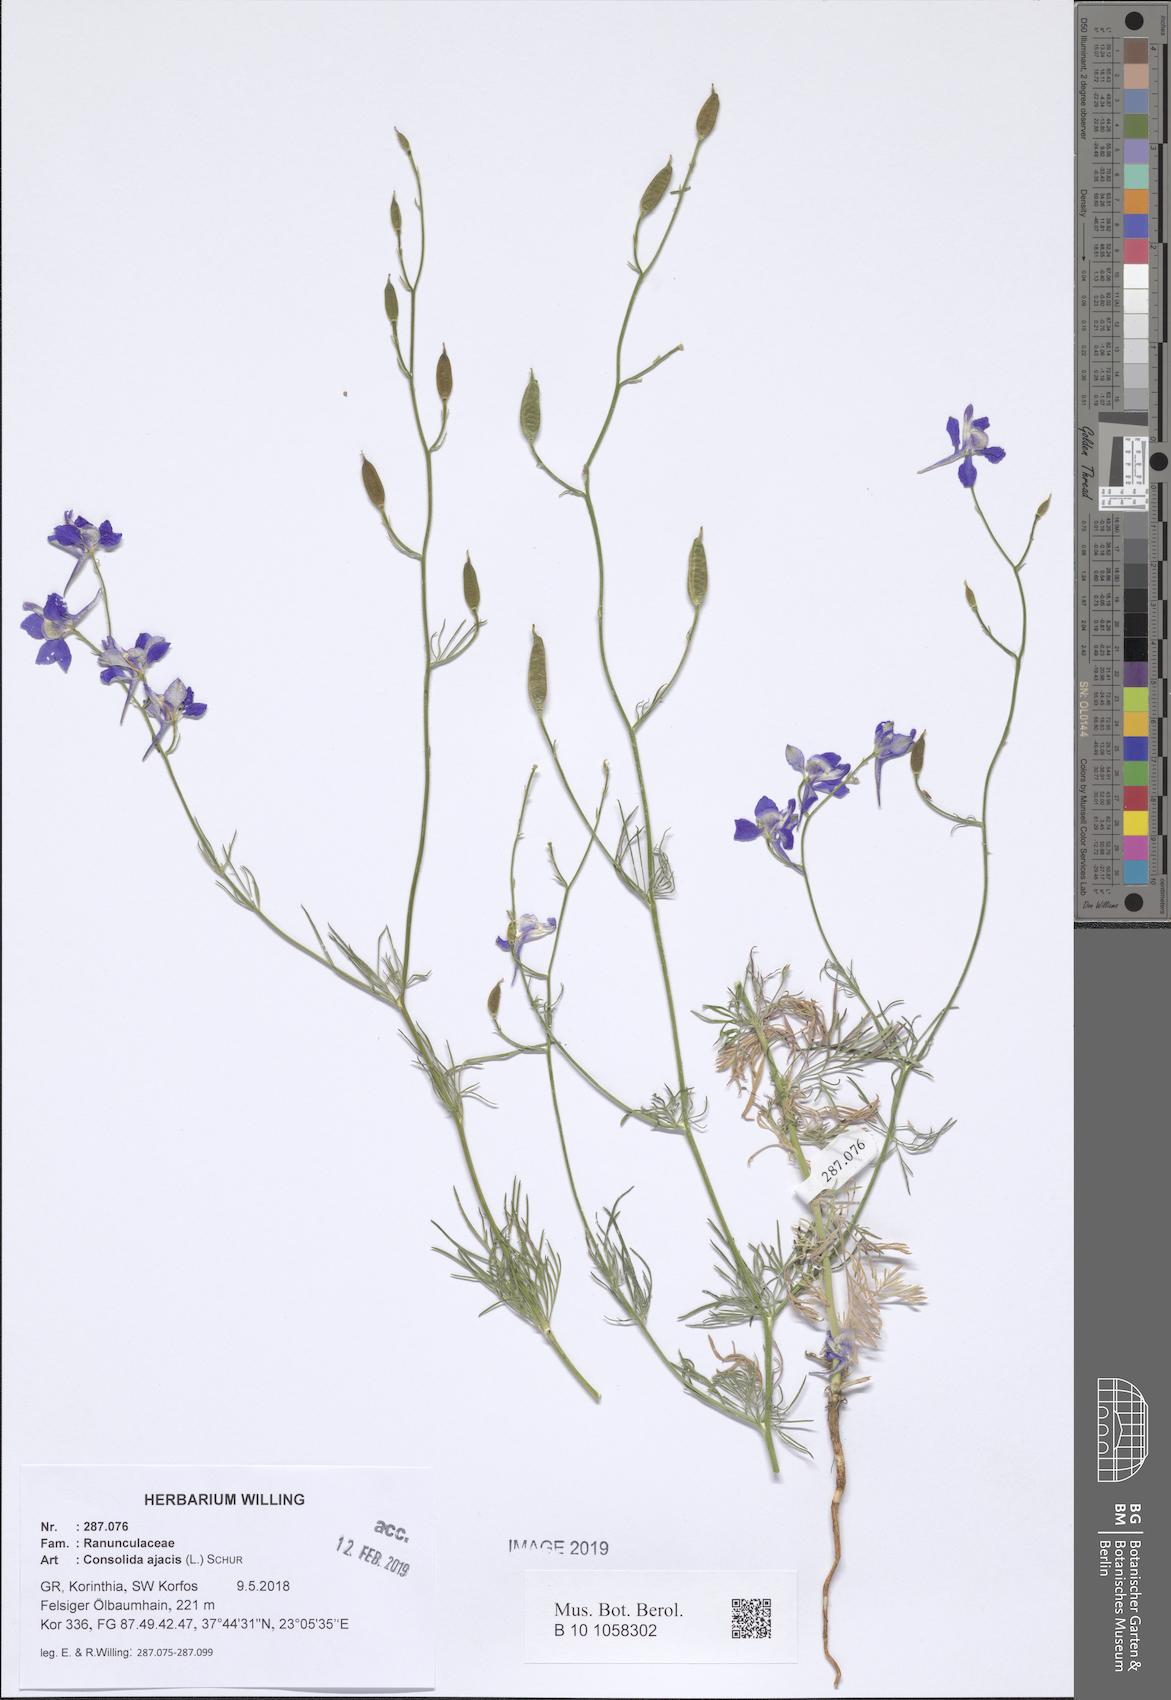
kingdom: Plantae
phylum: Tracheophyta
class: Magnoliopsida
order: Ranunculales
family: Ranunculaceae
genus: Delphinium
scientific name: Delphinium ajacis
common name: Doubtful knight's-spur
